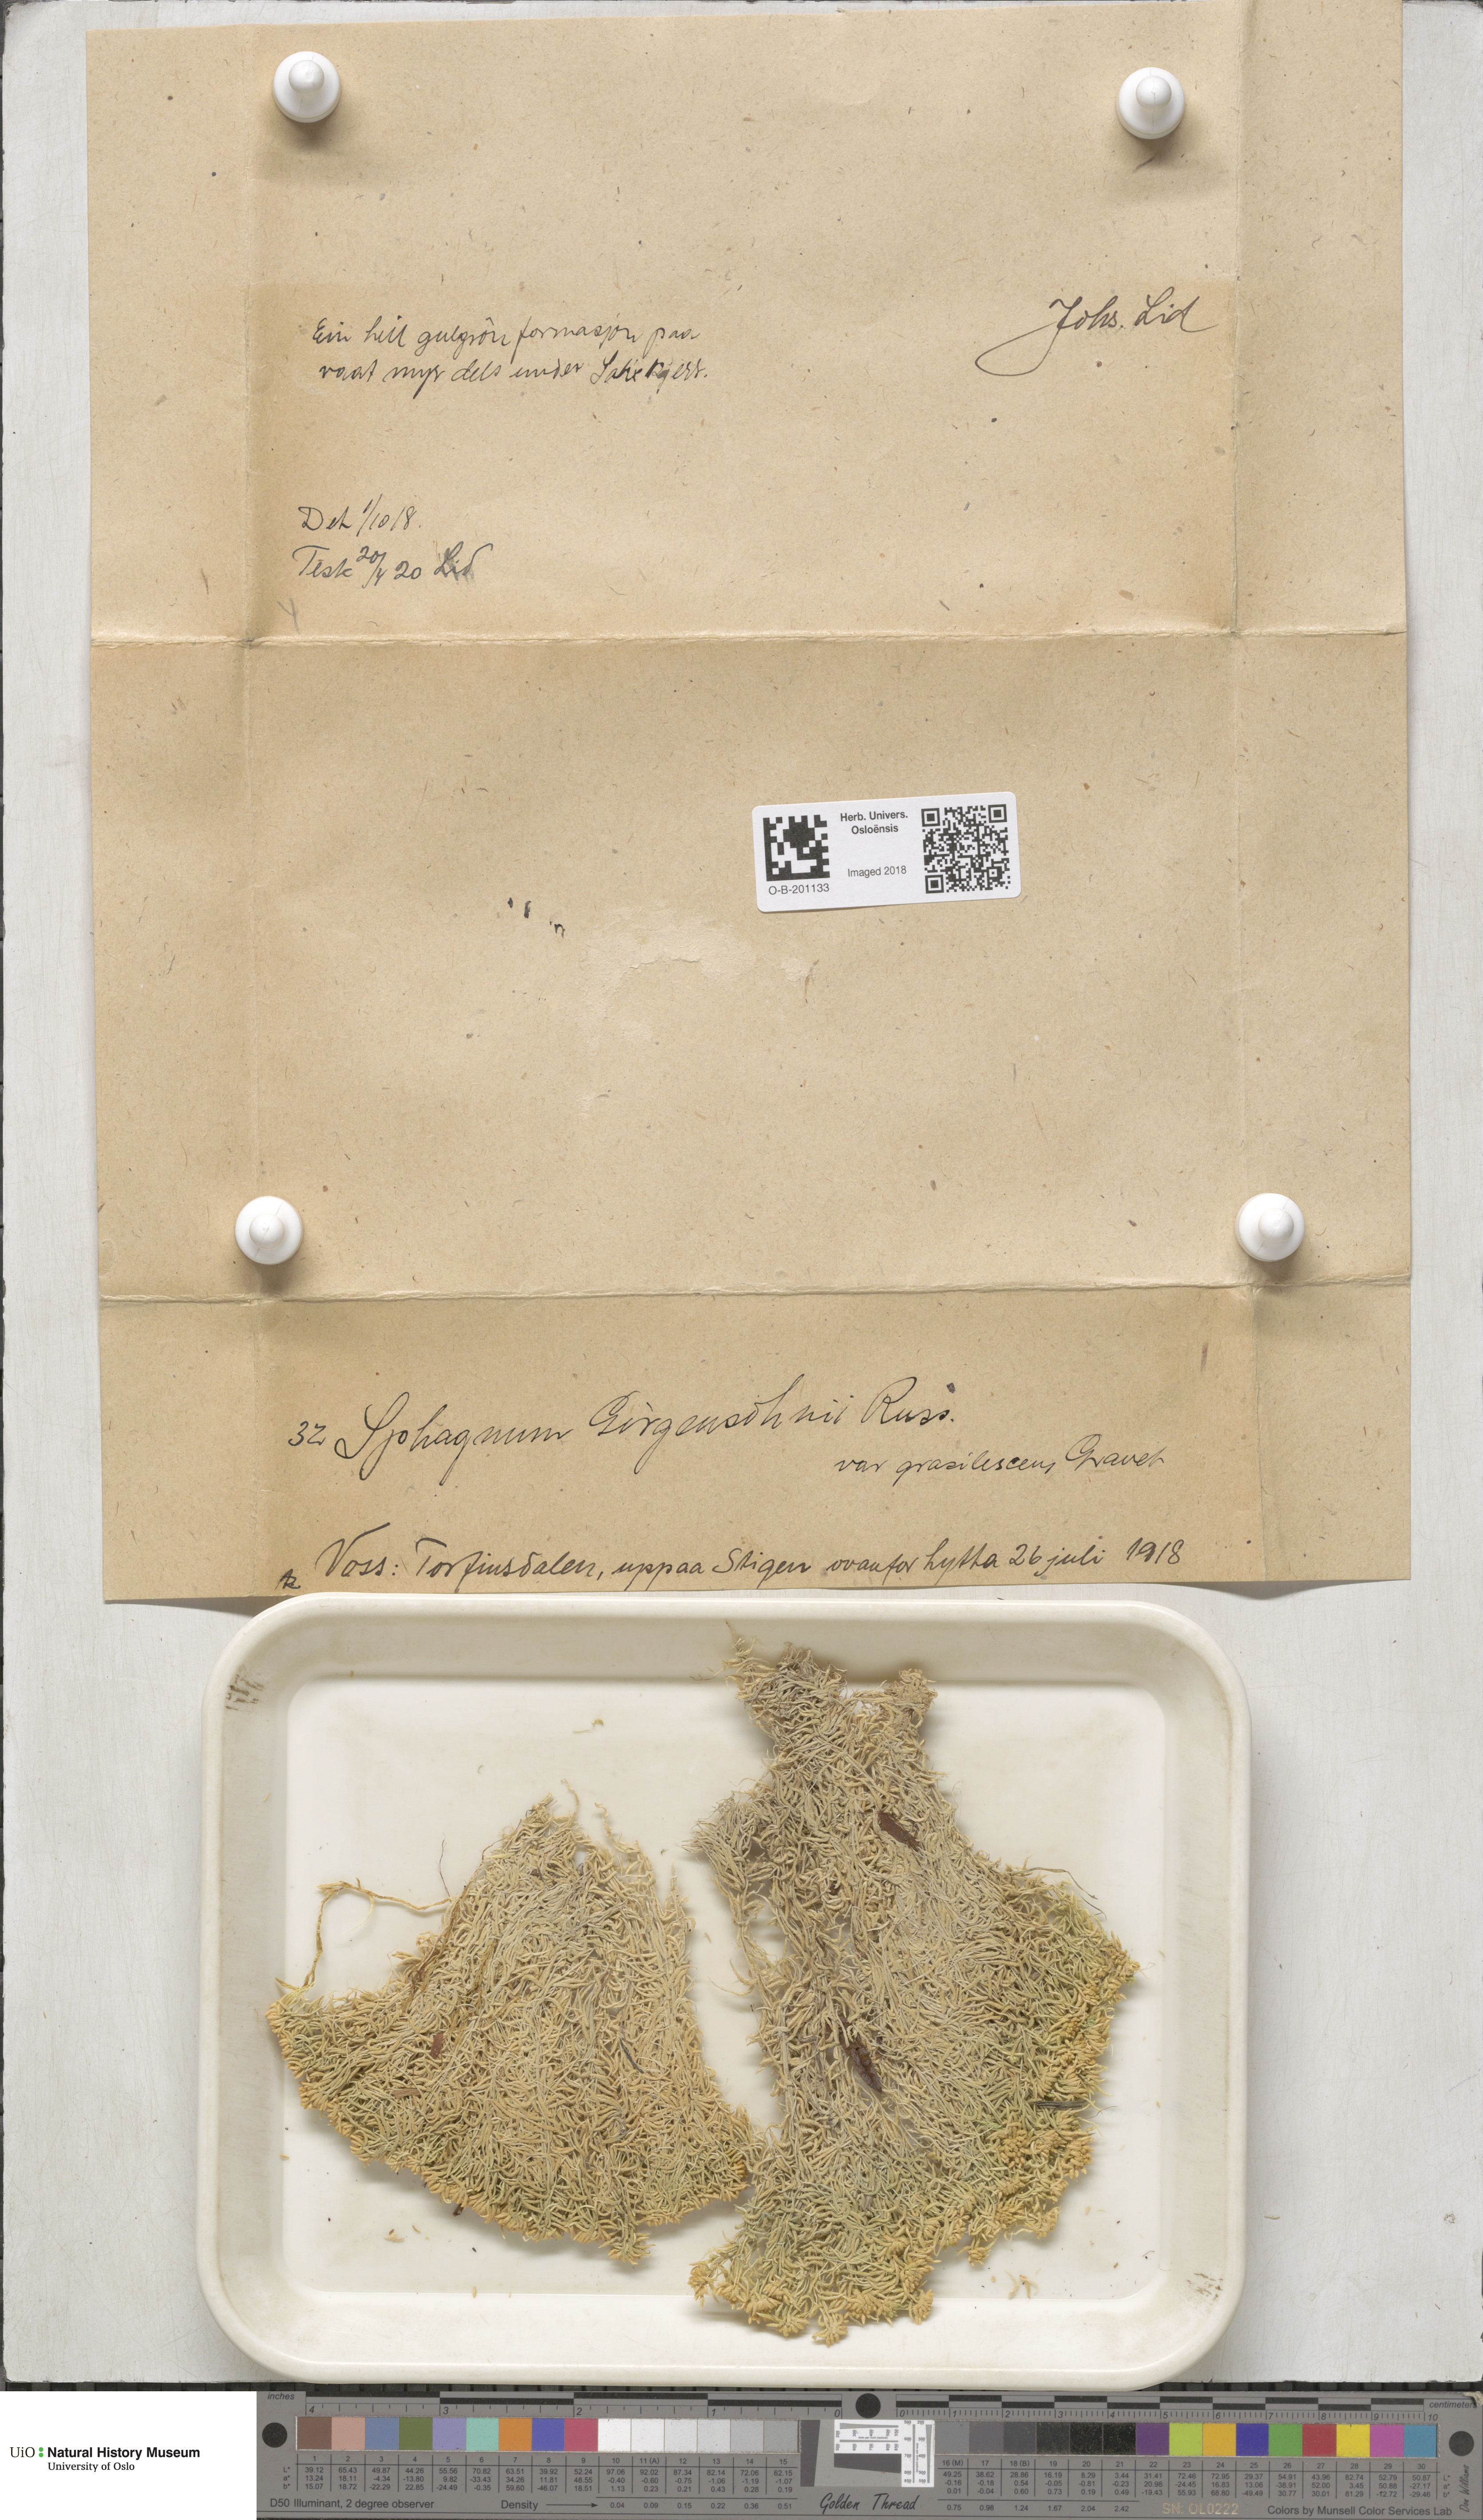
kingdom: Plantae
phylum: Bryophyta
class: Sphagnopsida
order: Sphagnales
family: Sphagnaceae
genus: Sphagnum
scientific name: Sphagnum girgensohnii
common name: Girgensohn's peat moss
